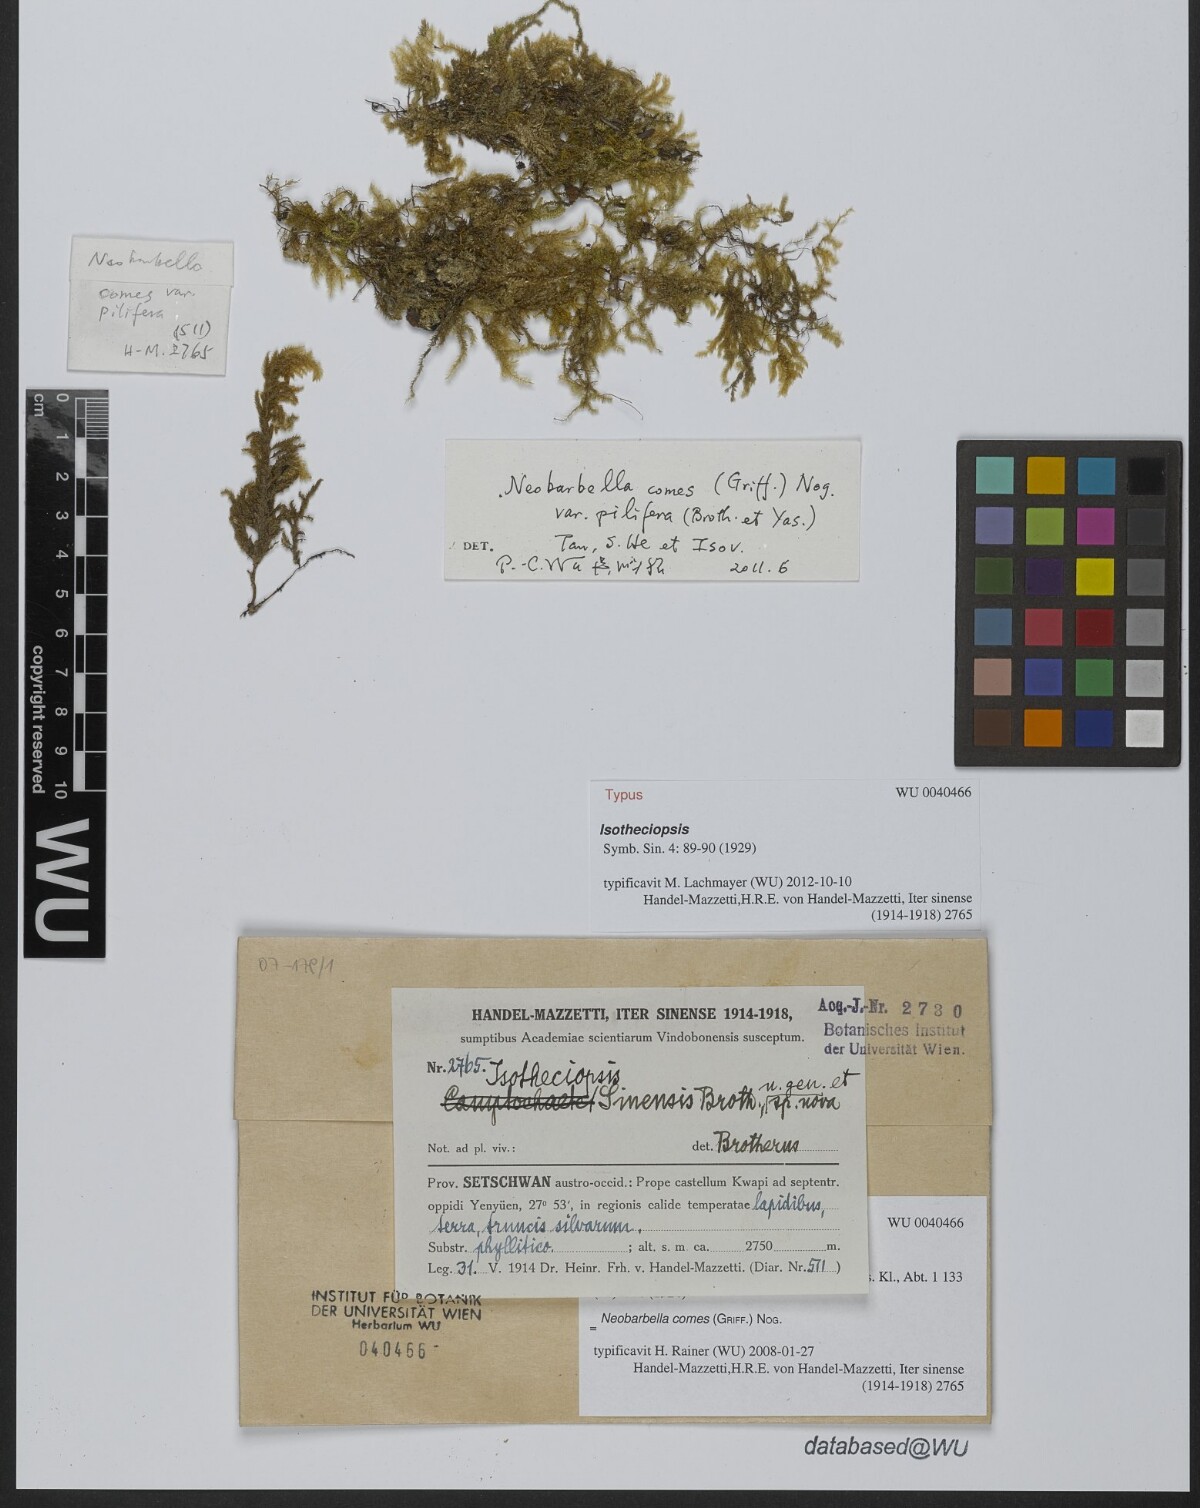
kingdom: Plantae
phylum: Bryophyta
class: Bryopsida
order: Hypnales
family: Lembophyllaceae
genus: Neobarbella
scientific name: Neobarbella comes
